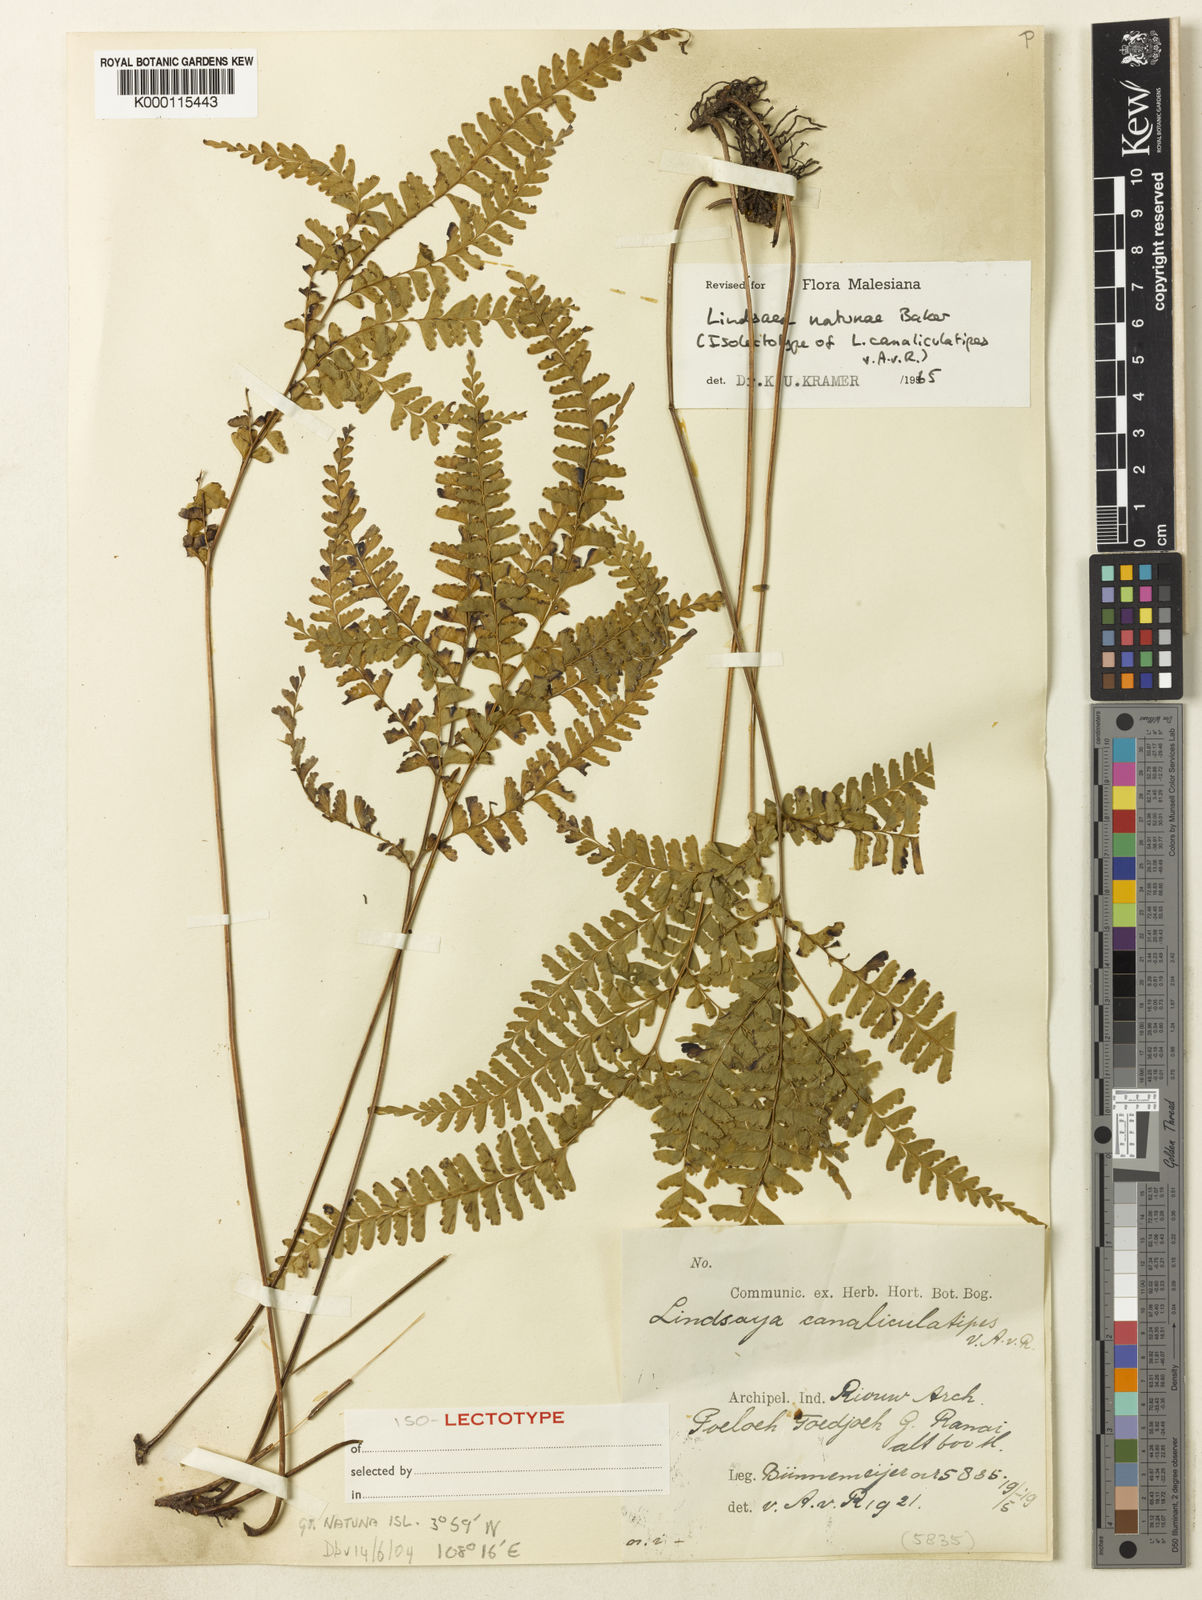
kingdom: Plantae
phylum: Tracheophyta
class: Polypodiopsida
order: Polypodiales
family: Lindsaeaceae
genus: Lindsaea
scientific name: Lindsaea natunae
